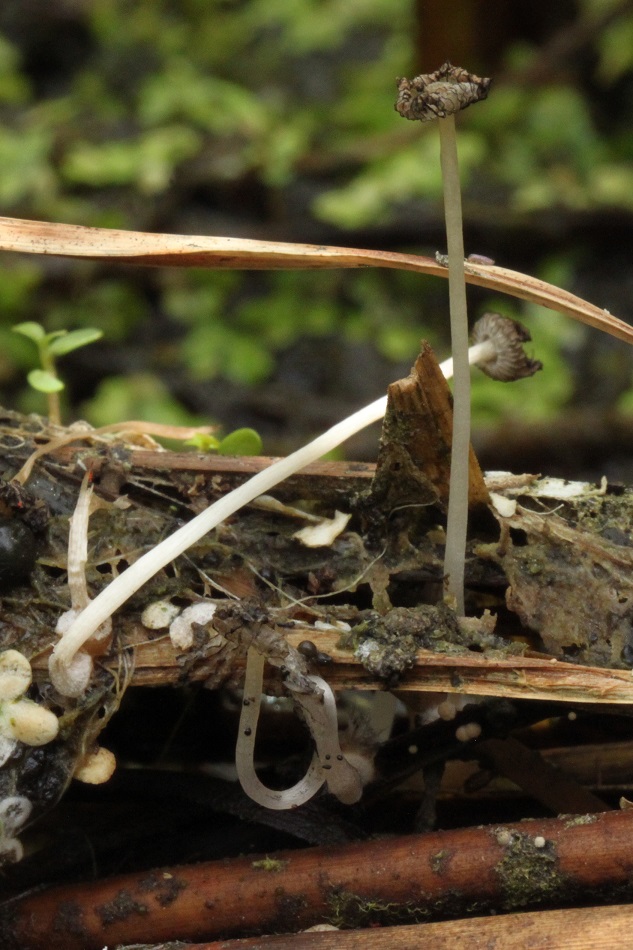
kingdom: Fungi
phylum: Basidiomycota
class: Agaricomycetes
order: Agaricales
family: Psathyrellaceae
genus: Coprinopsis
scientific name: Coprinopsis kubickae
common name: amfibie-blækhat
